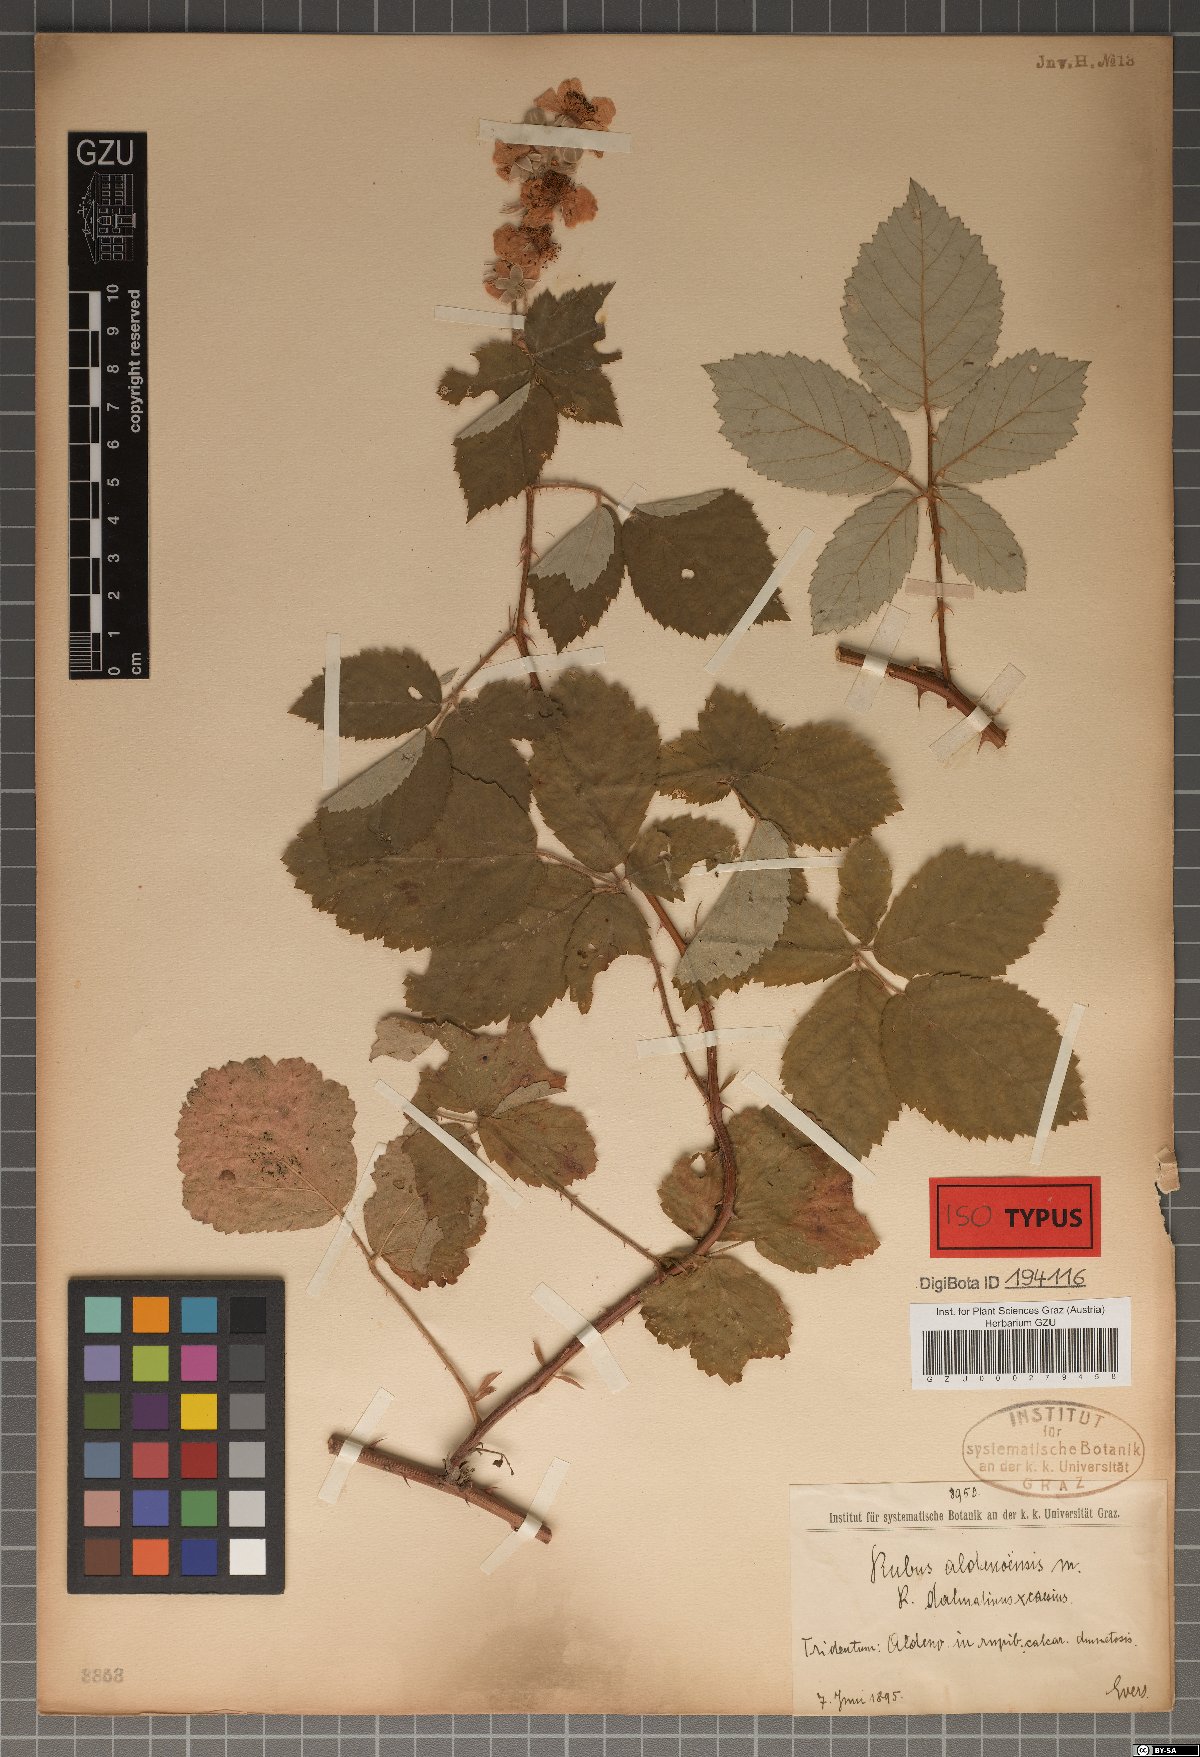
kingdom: Plantae
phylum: Tracheophyta
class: Magnoliopsida
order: Rosales
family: Rosaceae
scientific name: Rosaceae
